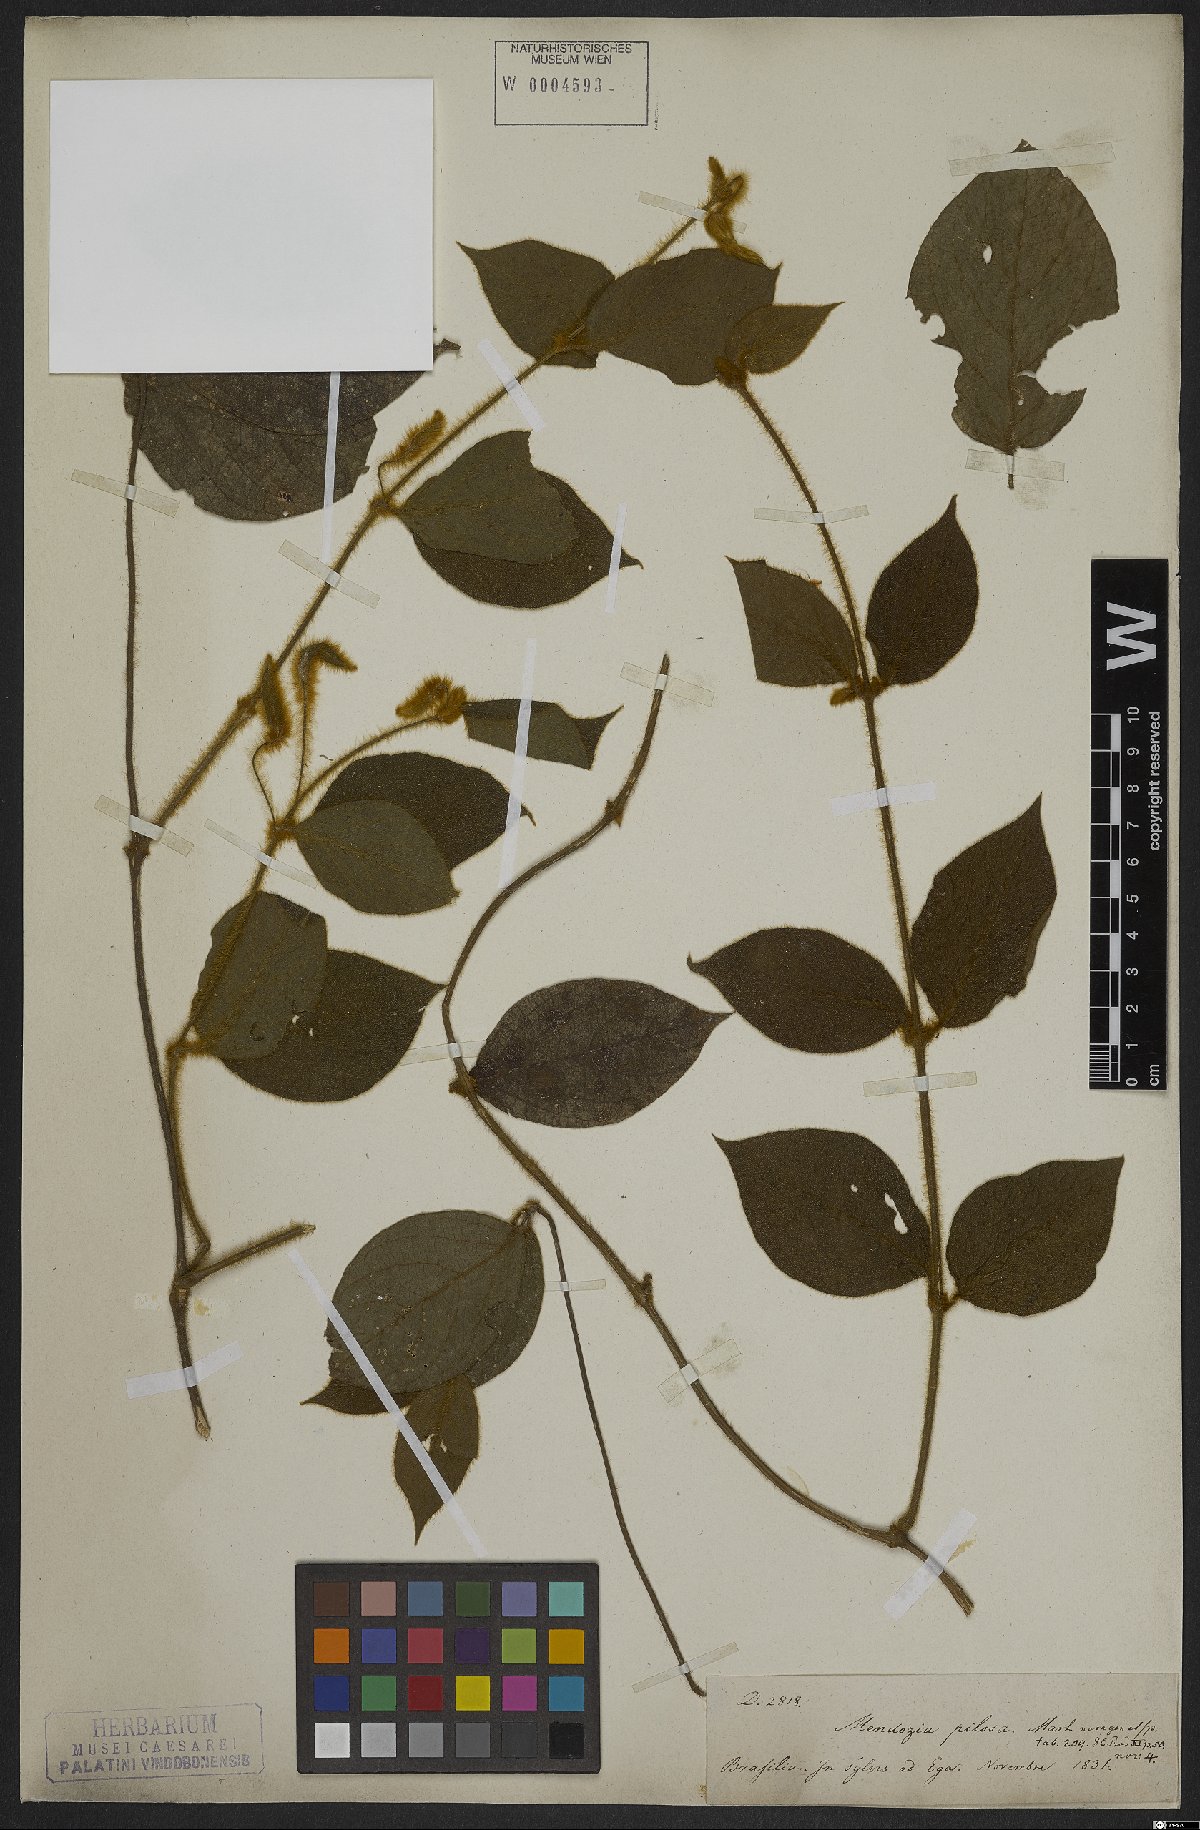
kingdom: Plantae
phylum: Tracheophyta
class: Magnoliopsida
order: Lamiales
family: Acanthaceae
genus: Mendoncia
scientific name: Mendoncia pilosa
